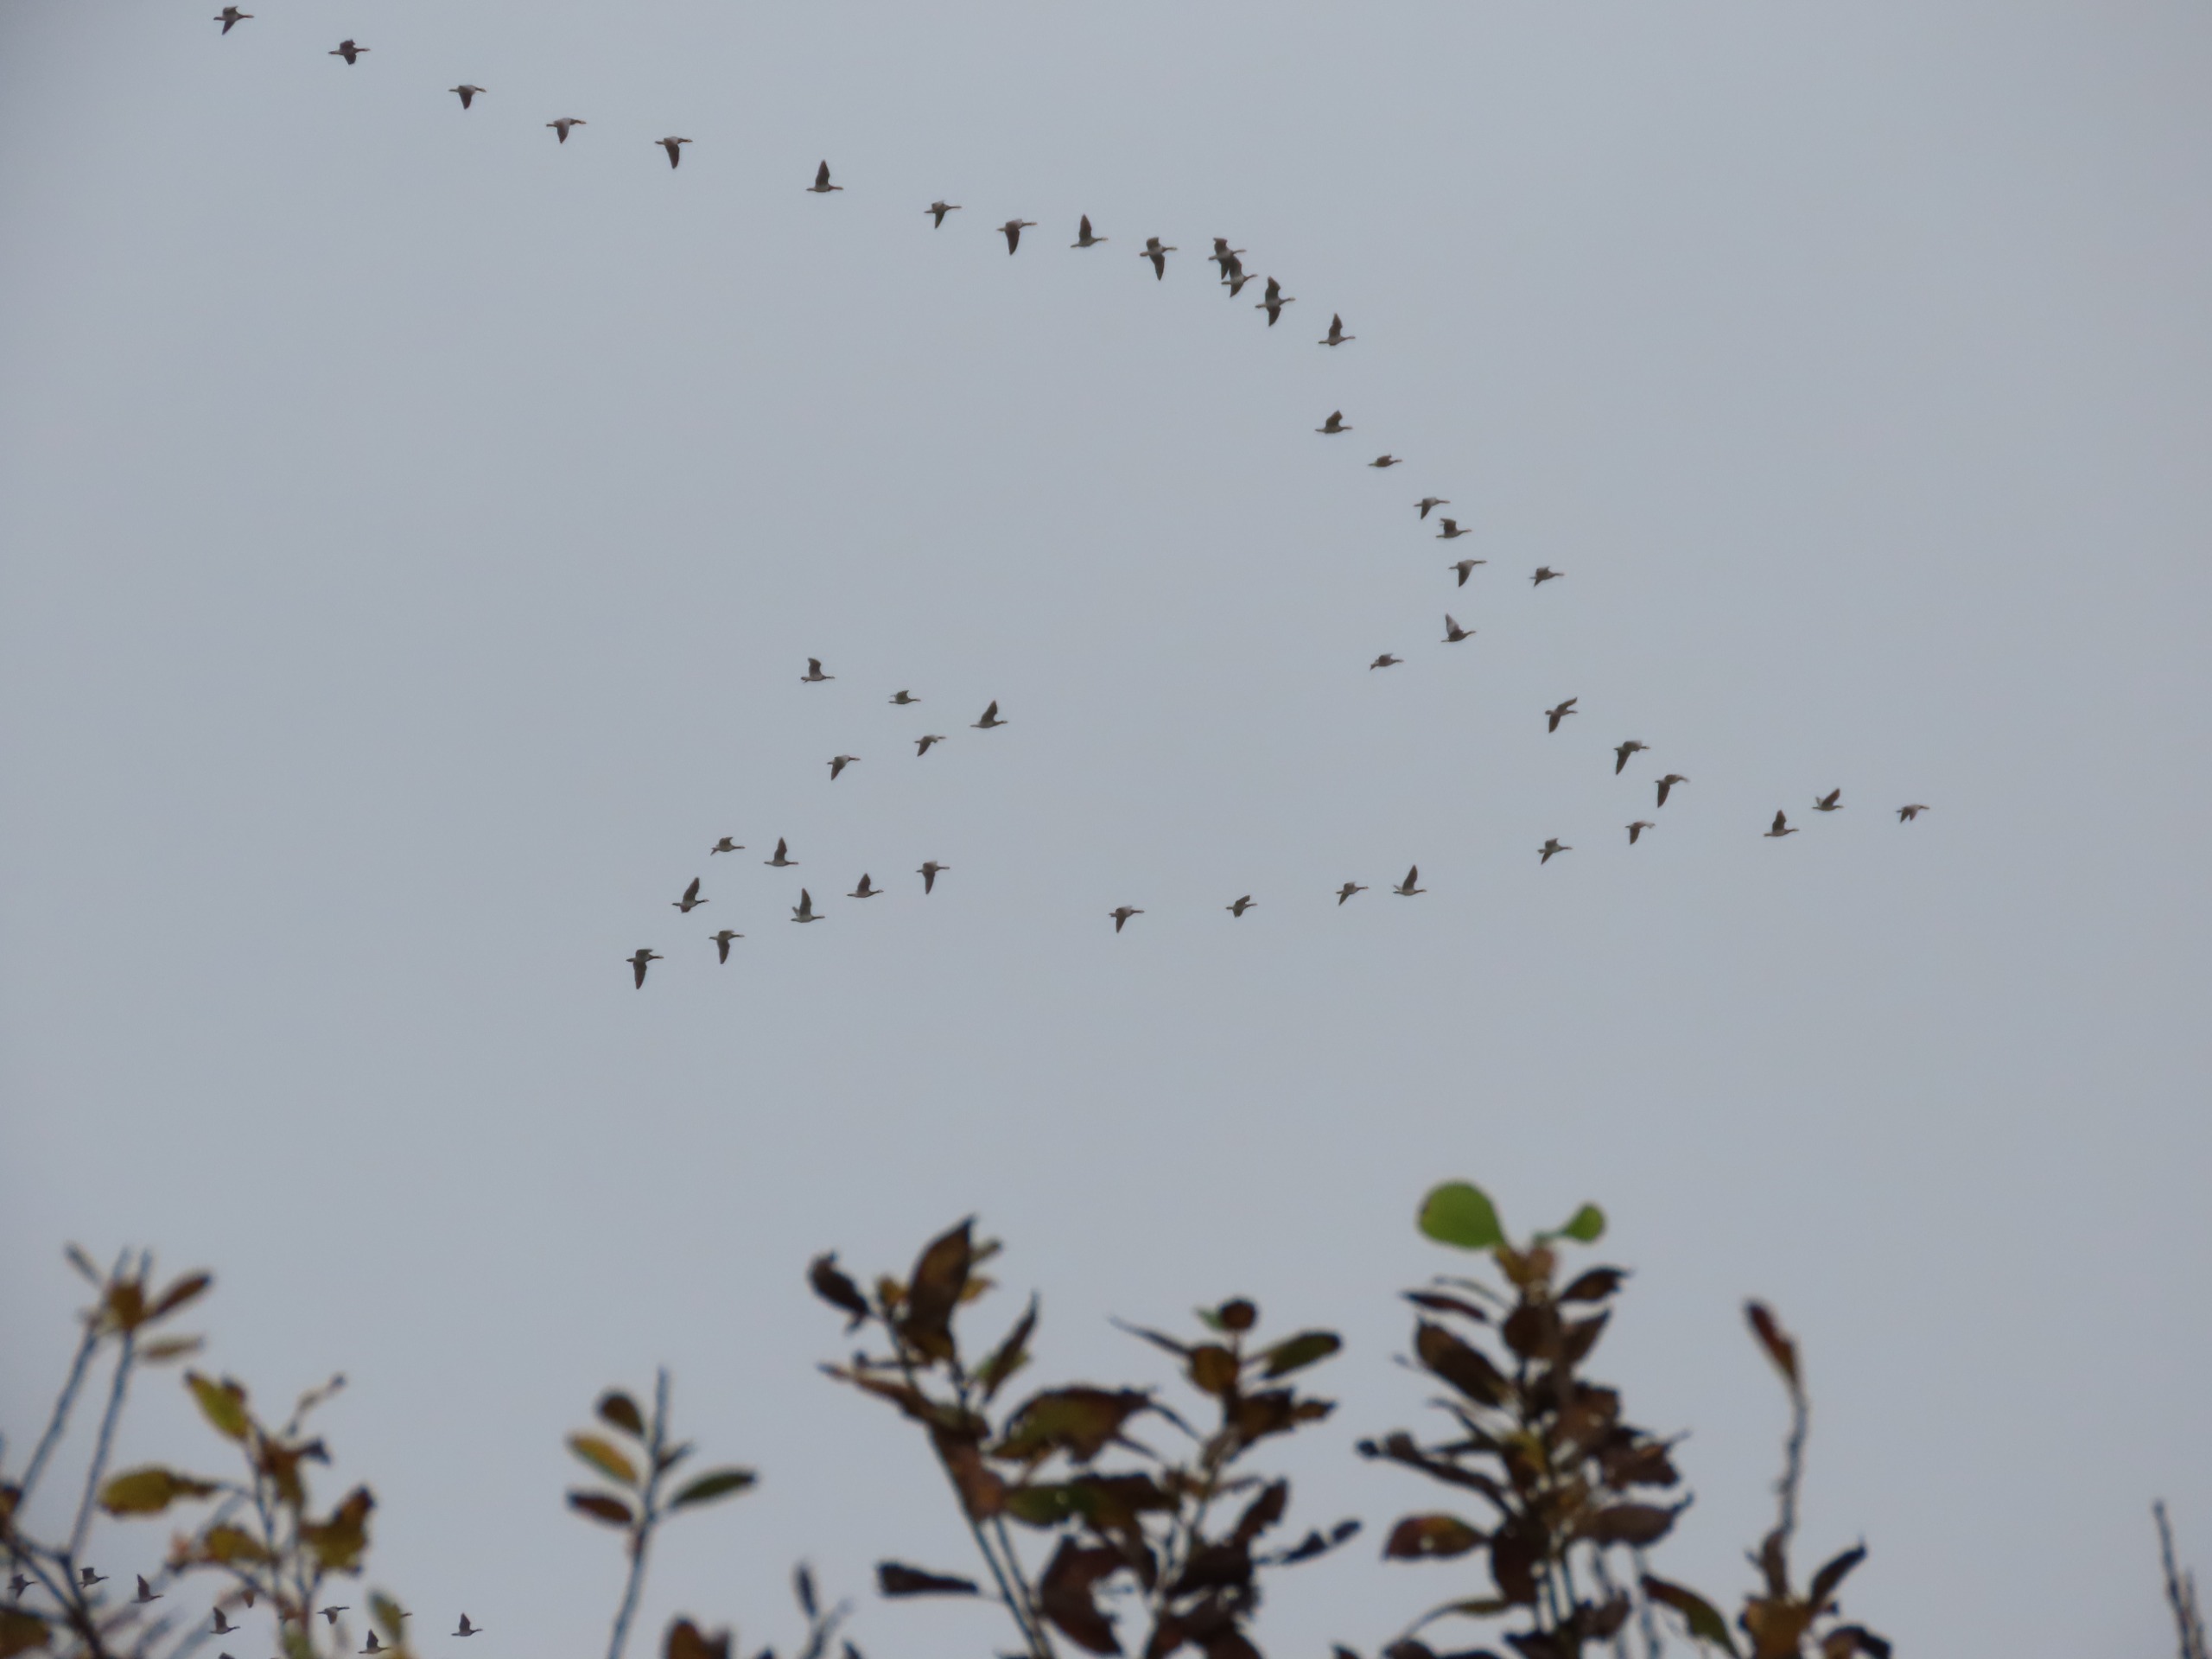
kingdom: Animalia
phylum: Chordata
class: Aves
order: Anseriformes
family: Anatidae
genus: Branta
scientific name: Branta leucopsis
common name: Bramgås
